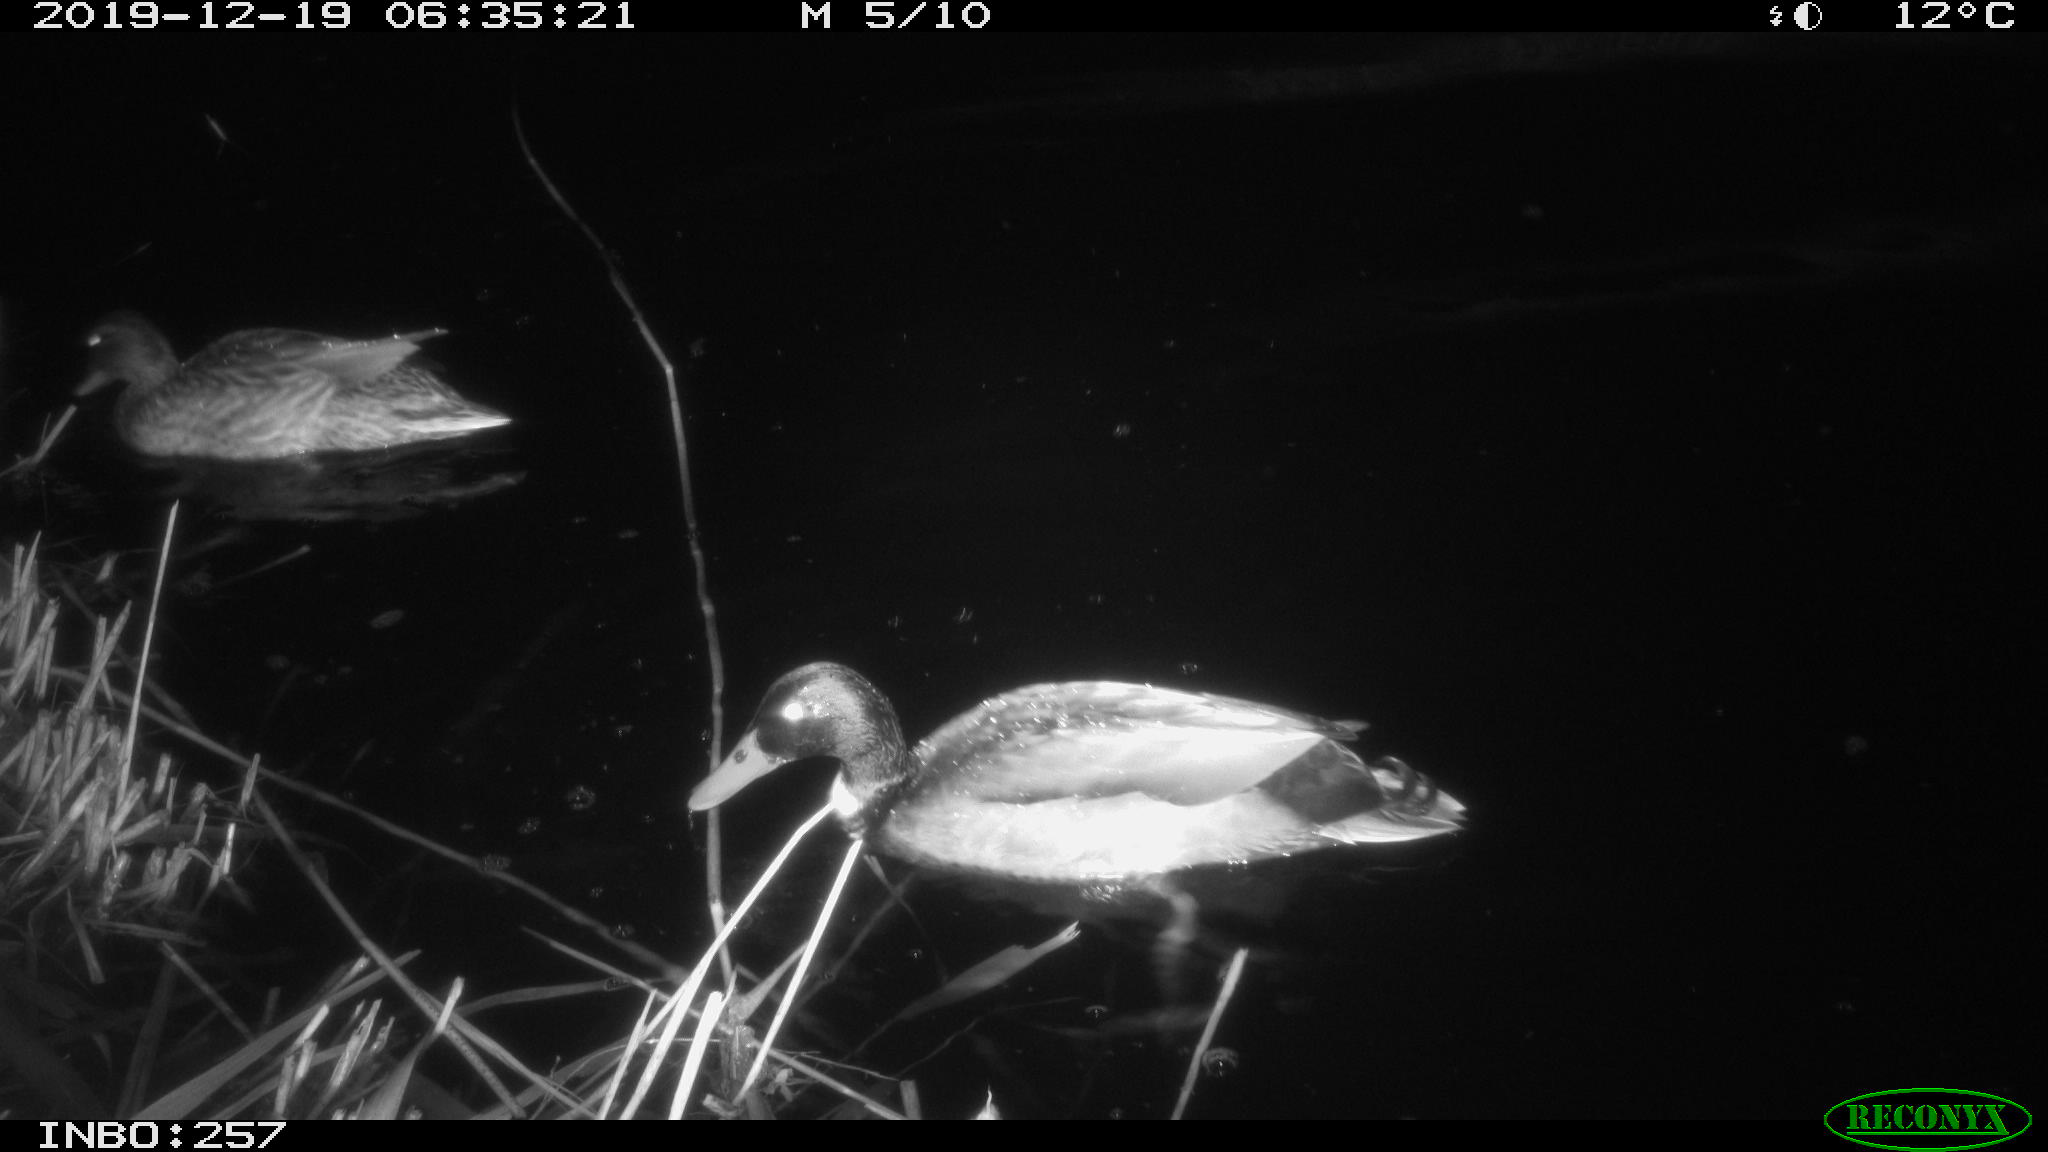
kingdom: Animalia
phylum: Chordata
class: Aves
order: Anseriformes
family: Anatidae
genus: Anas
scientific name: Anas platyrhynchos
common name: Mallard
